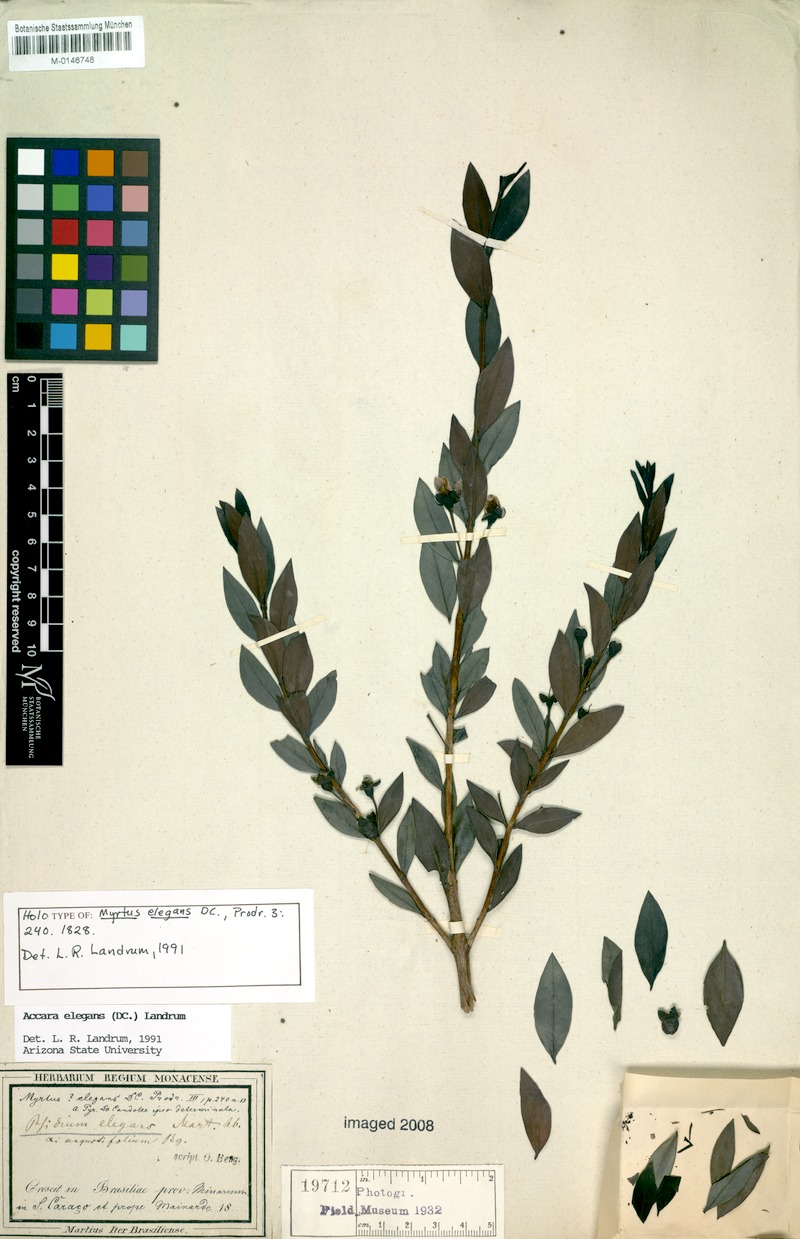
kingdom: Plantae
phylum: Tracheophyta
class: Magnoliopsida
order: Myrtales
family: Myrtaceae
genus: Accara
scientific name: Accara elegans
